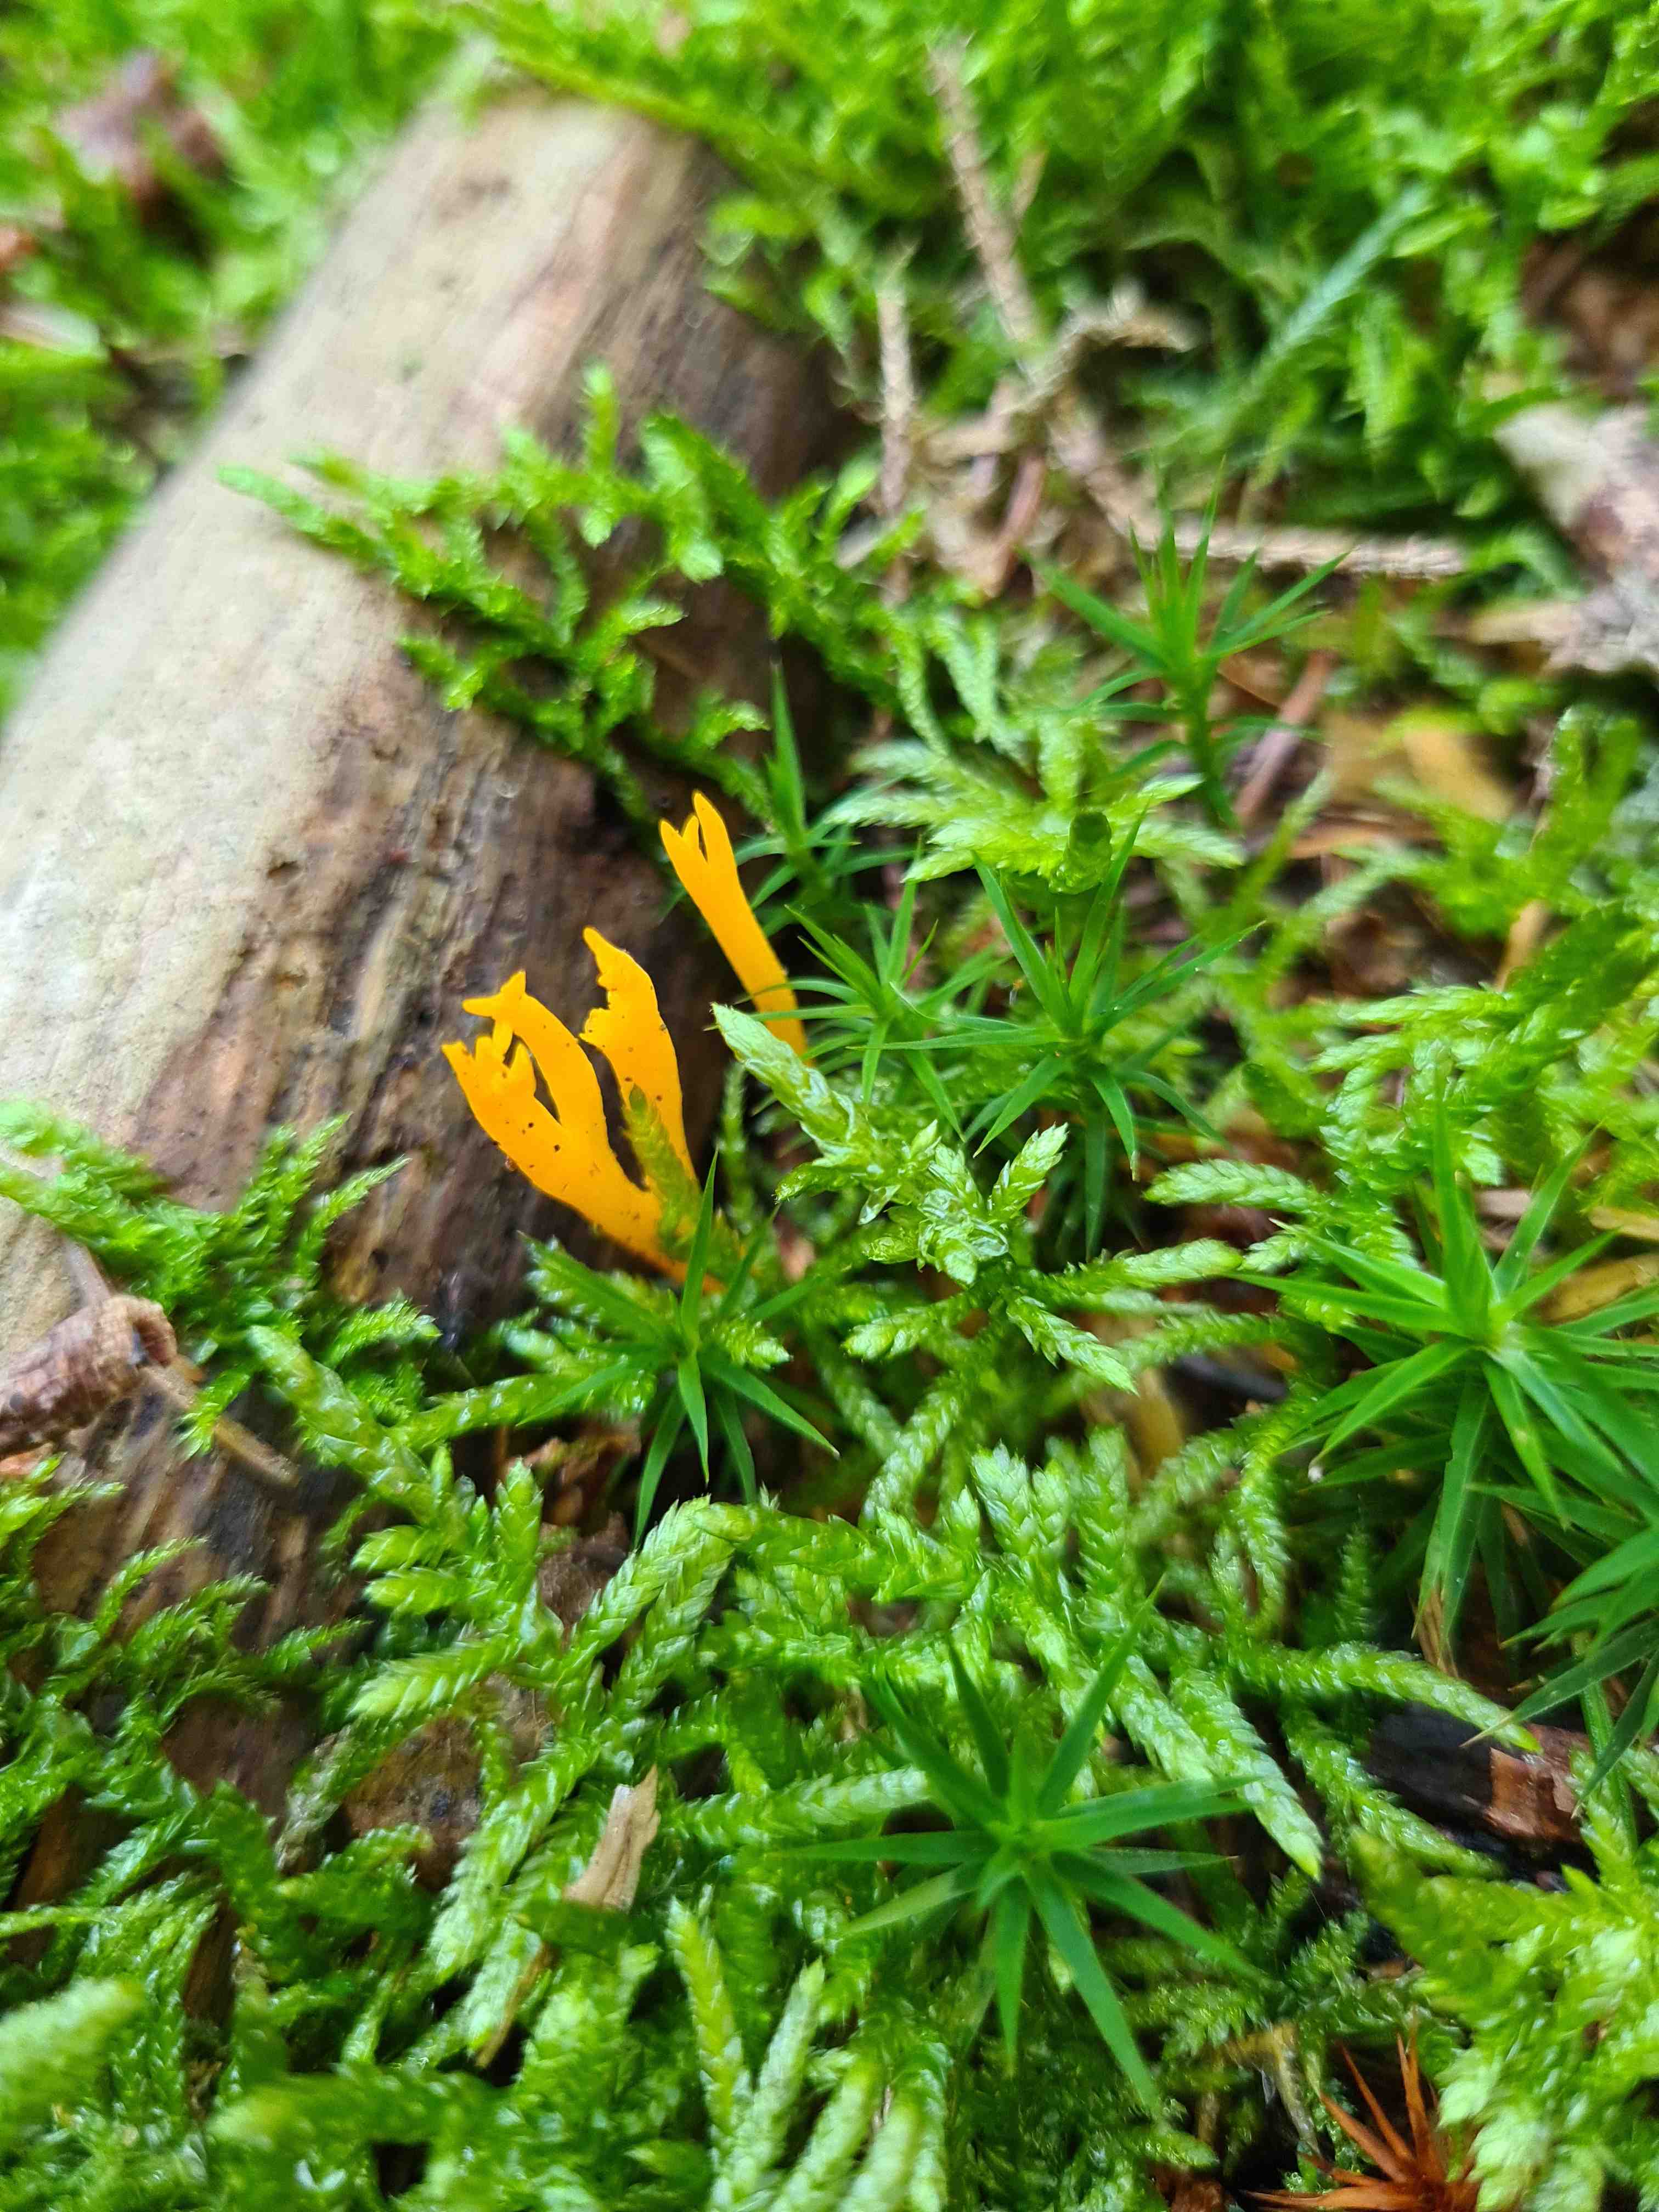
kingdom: Fungi
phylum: Basidiomycota
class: Dacrymycetes
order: Dacrymycetales
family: Dacrymycetaceae
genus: Calocera
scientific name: Calocera viscosa
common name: almindelig guldgaffel
